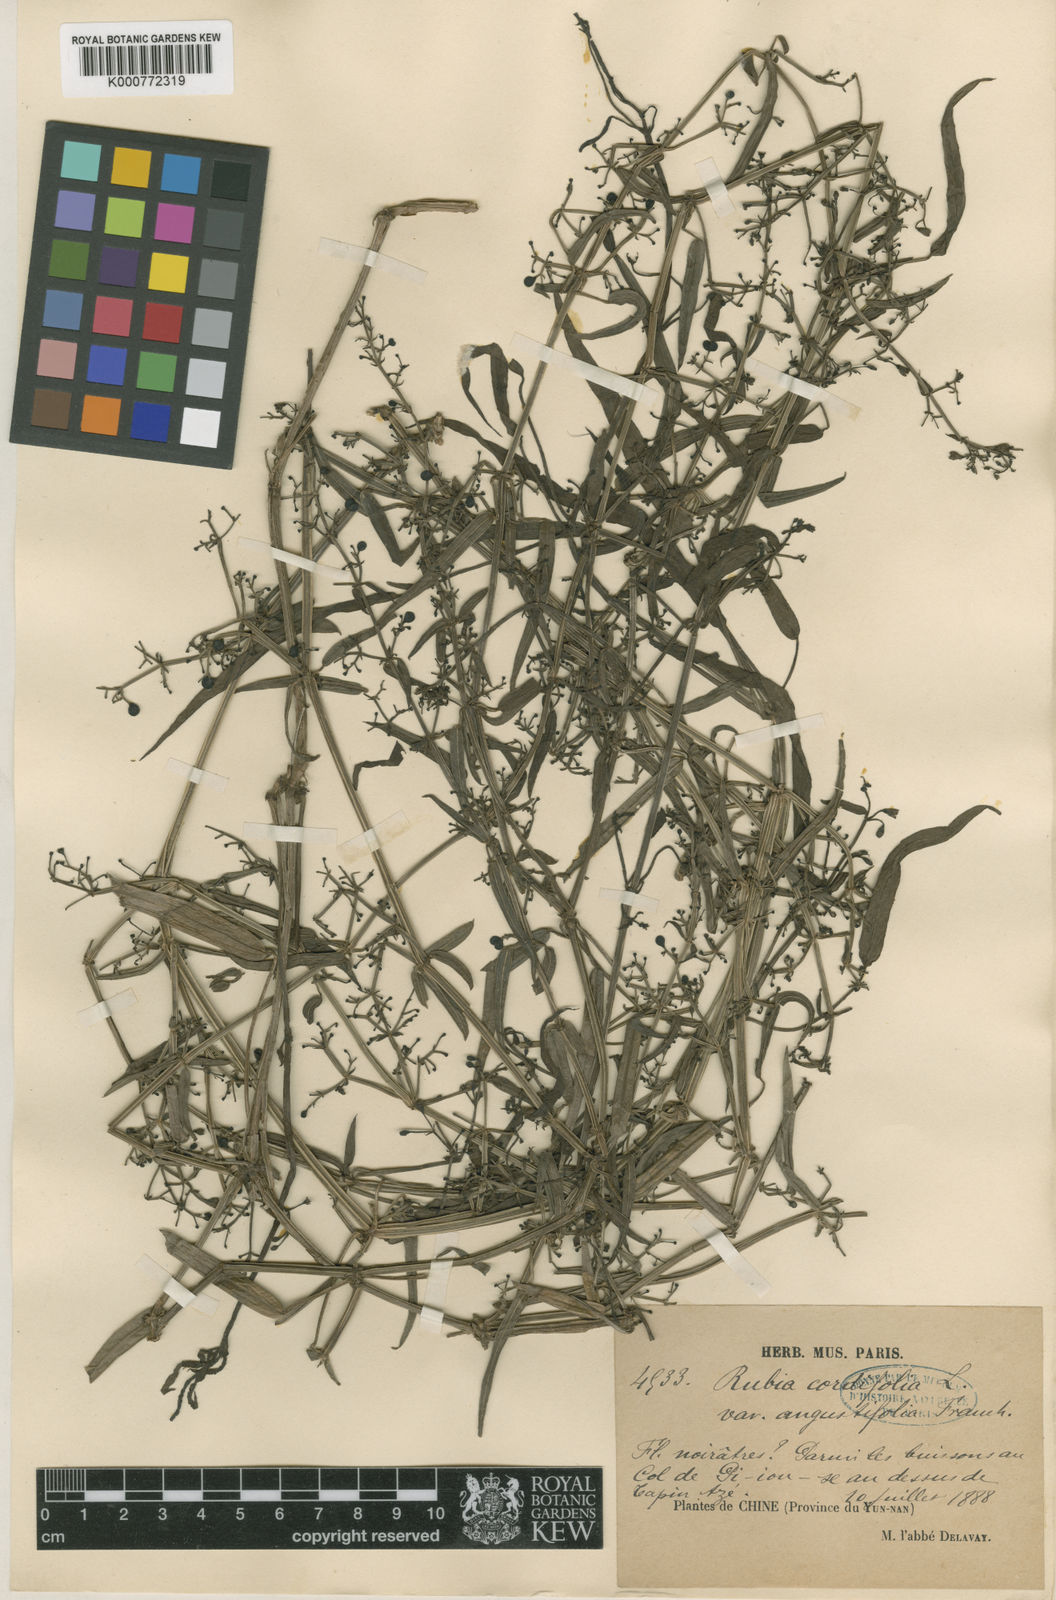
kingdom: Plantae
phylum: Tracheophyta
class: Magnoliopsida
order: Gentianales
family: Rubiaceae
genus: Rubia
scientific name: Rubia cordifolia
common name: Indian madder
